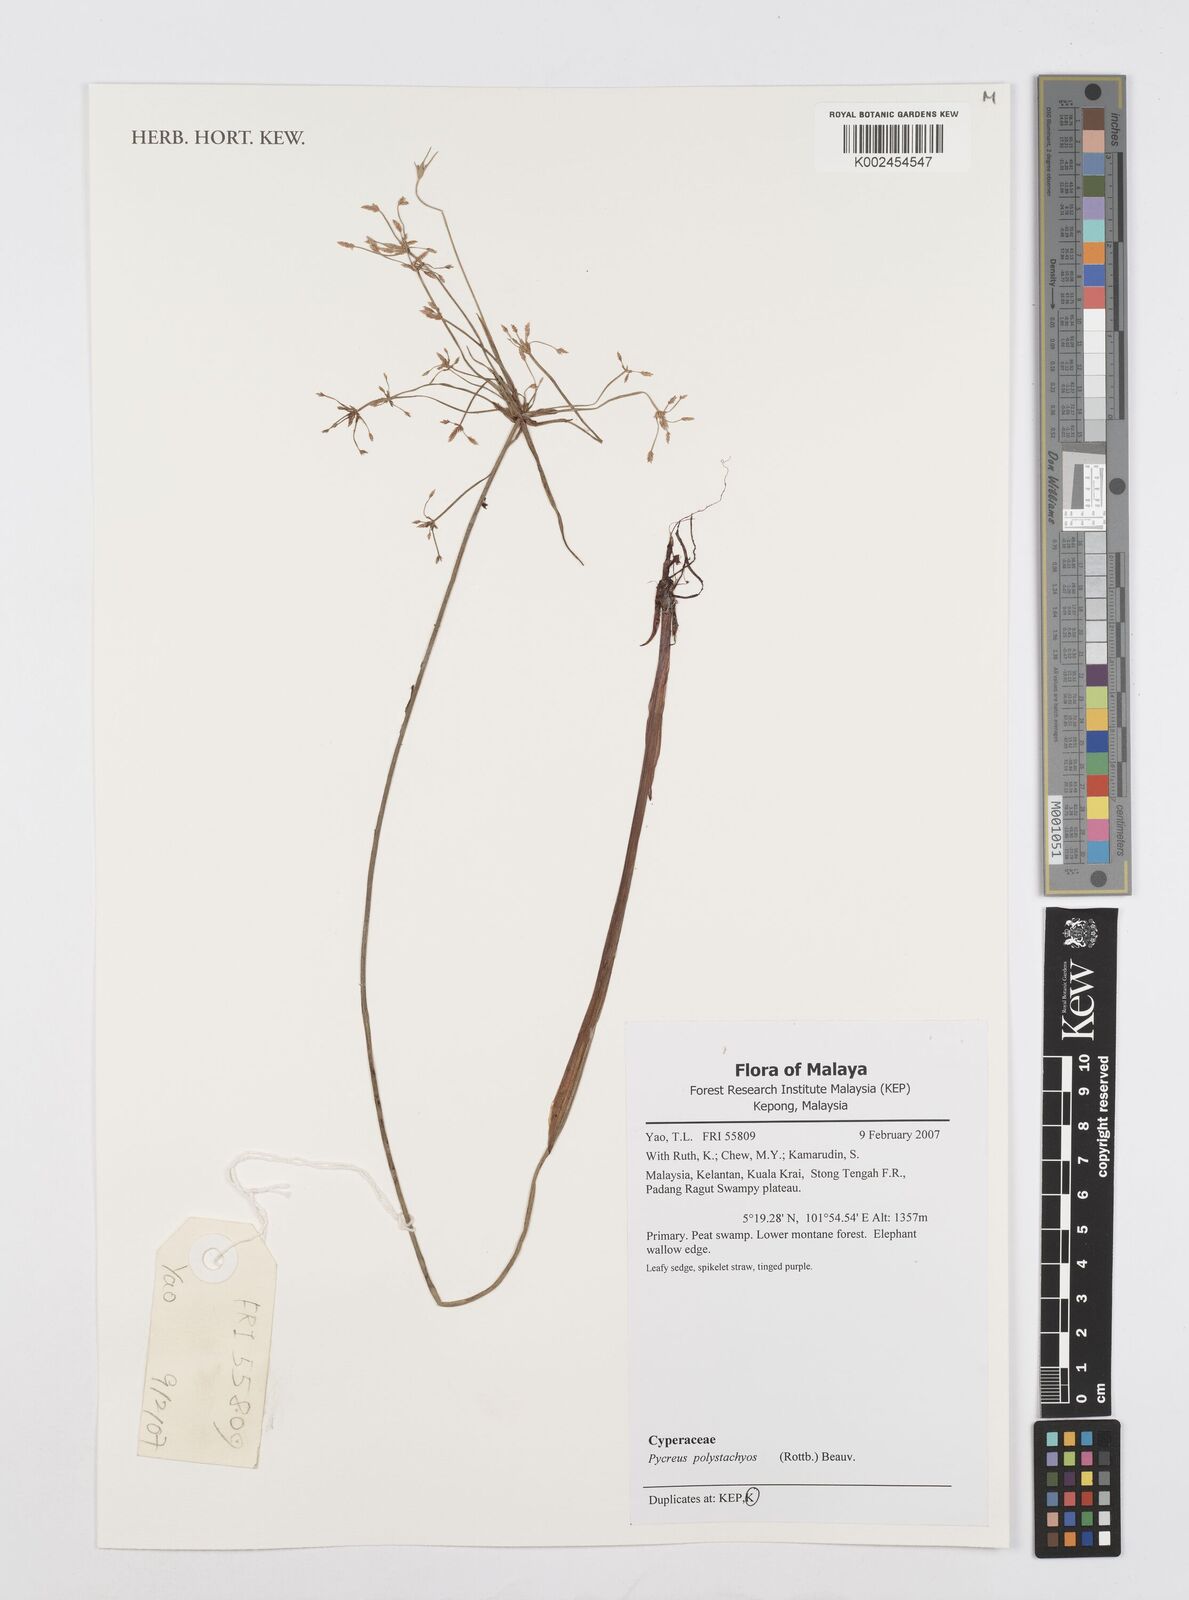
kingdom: Plantae
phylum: Tracheophyta
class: Liliopsida
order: Poales
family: Cyperaceae
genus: Cyperus
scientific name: Cyperus polystachyos
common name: Bunchy flat sedge
